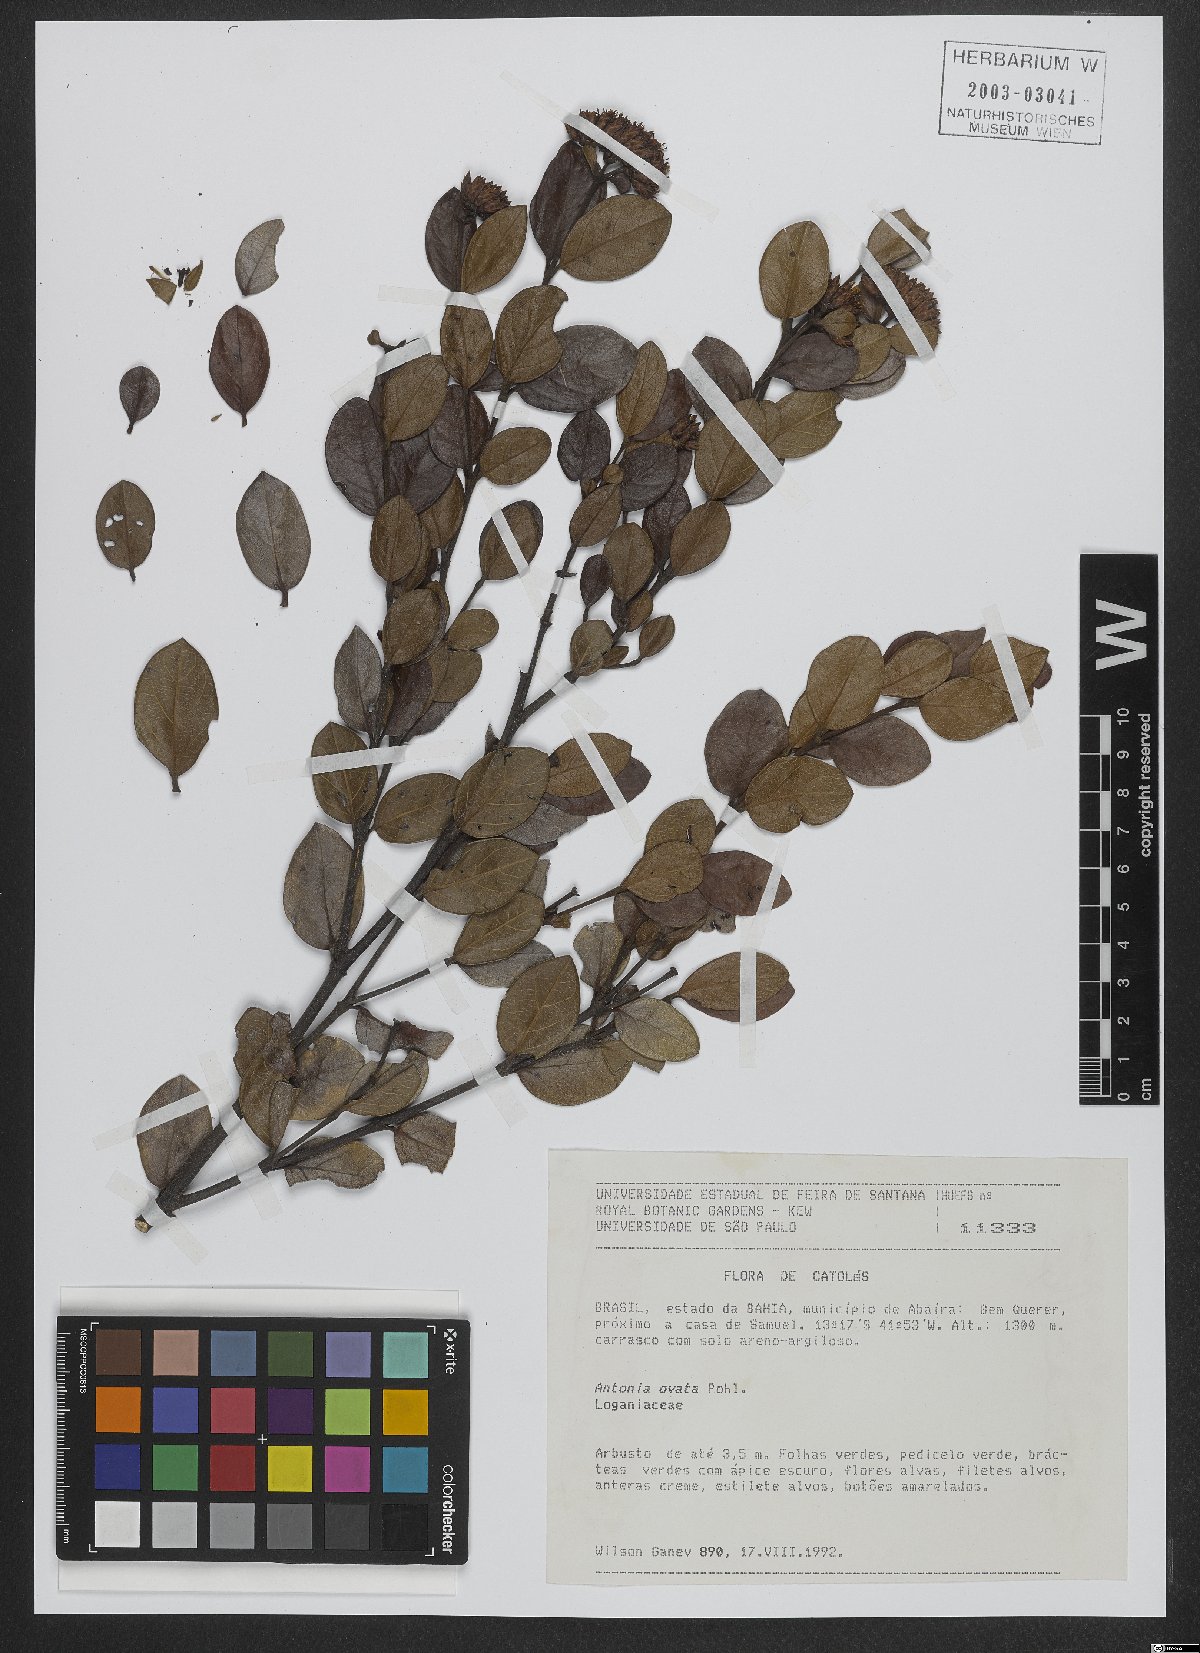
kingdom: Plantae
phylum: Tracheophyta
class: Magnoliopsida
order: Gentianales
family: Loganiaceae
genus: Antonia
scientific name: Antonia ovata
